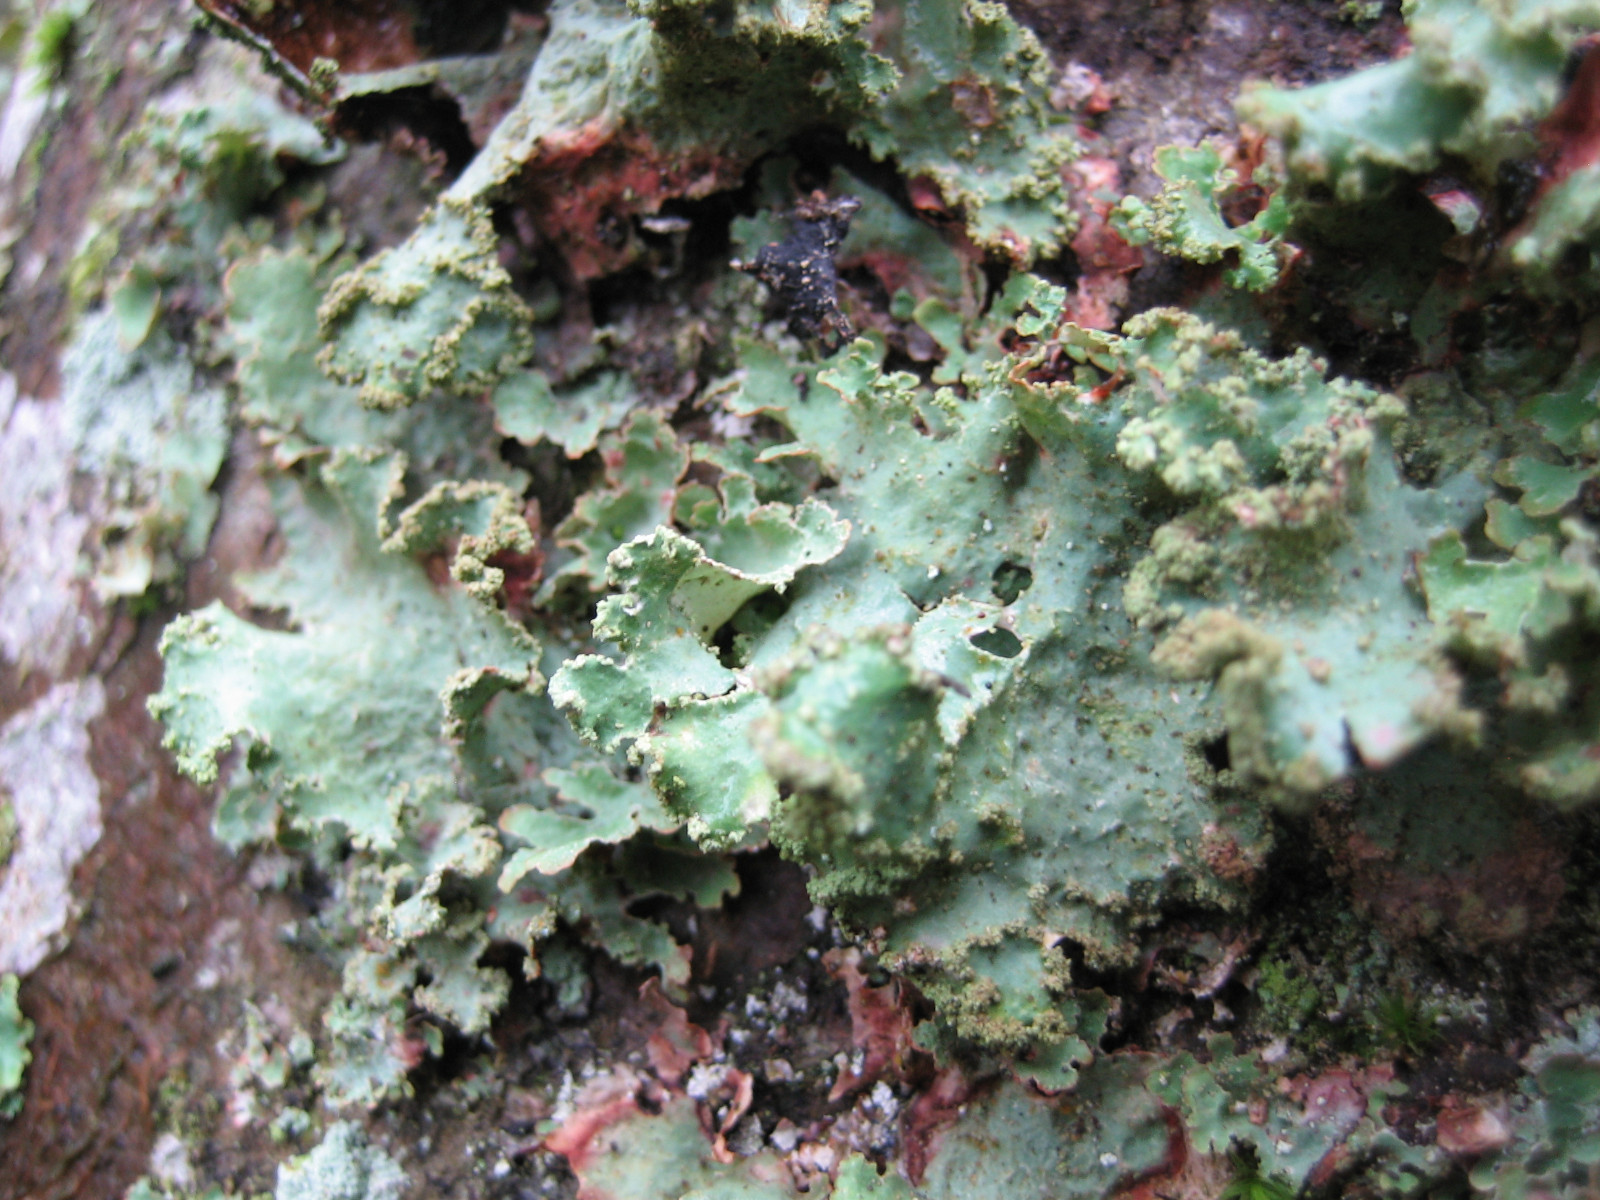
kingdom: Fungi
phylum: Ascomycota
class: Lecanoromycetes
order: Lecanorales
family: Parmeliaceae
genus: Platismatia
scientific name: Platismatia glauca
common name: blågrå papirlav
